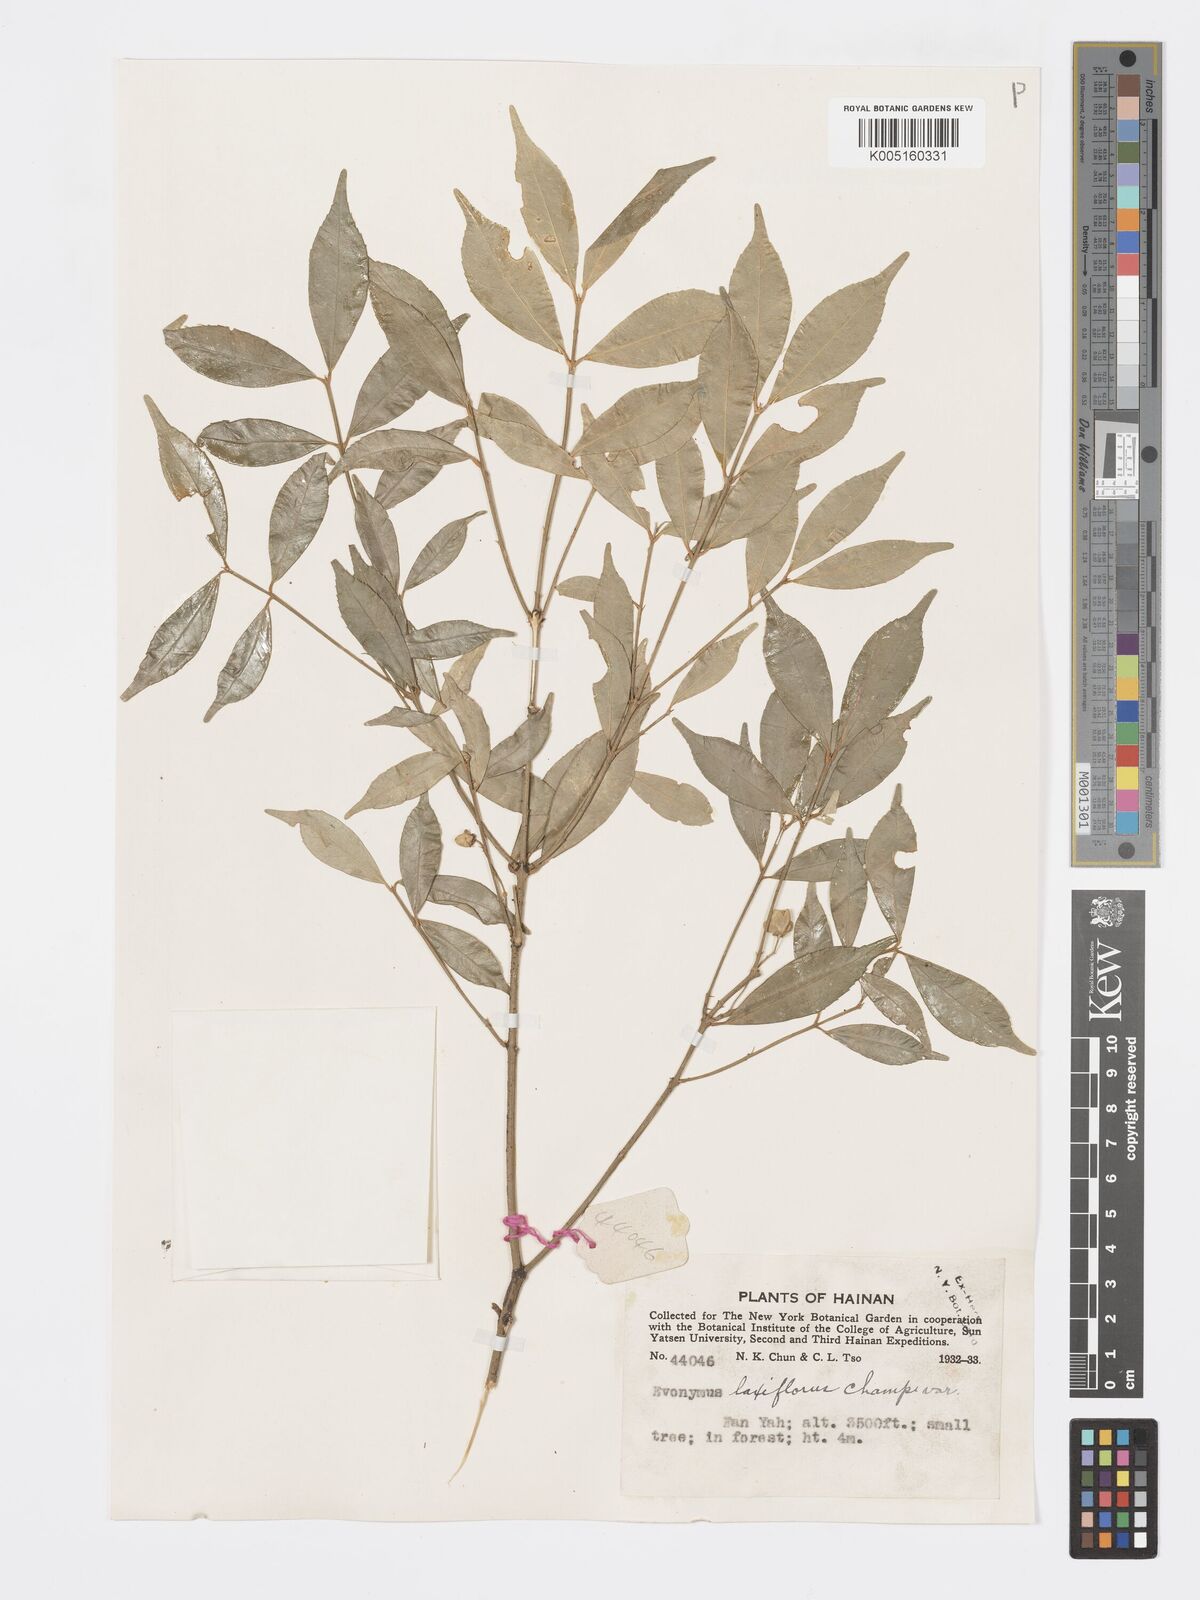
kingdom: Plantae
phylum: Tracheophyta
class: Magnoliopsida
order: Celastrales
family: Celastraceae
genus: Euonymus
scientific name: Euonymus
